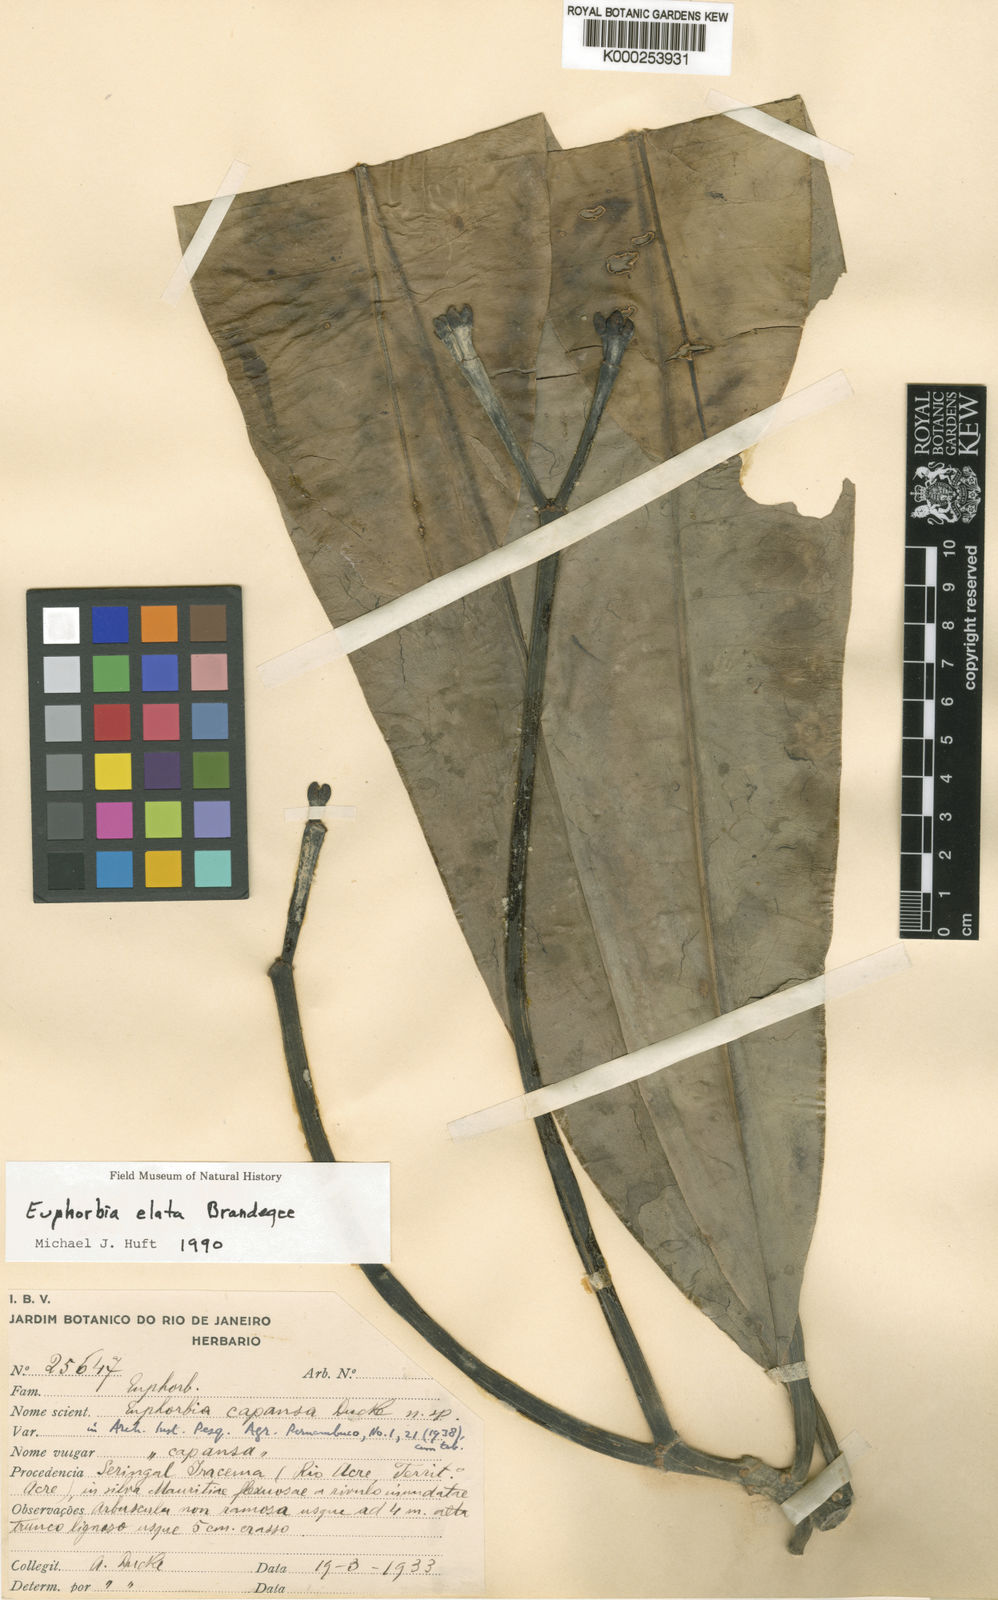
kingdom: Plantae
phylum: Tracheophyta
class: Magnoliopsida
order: Malpighiales
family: Euphorbiaceae
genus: Euphorbia
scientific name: Euphorbia capansa
